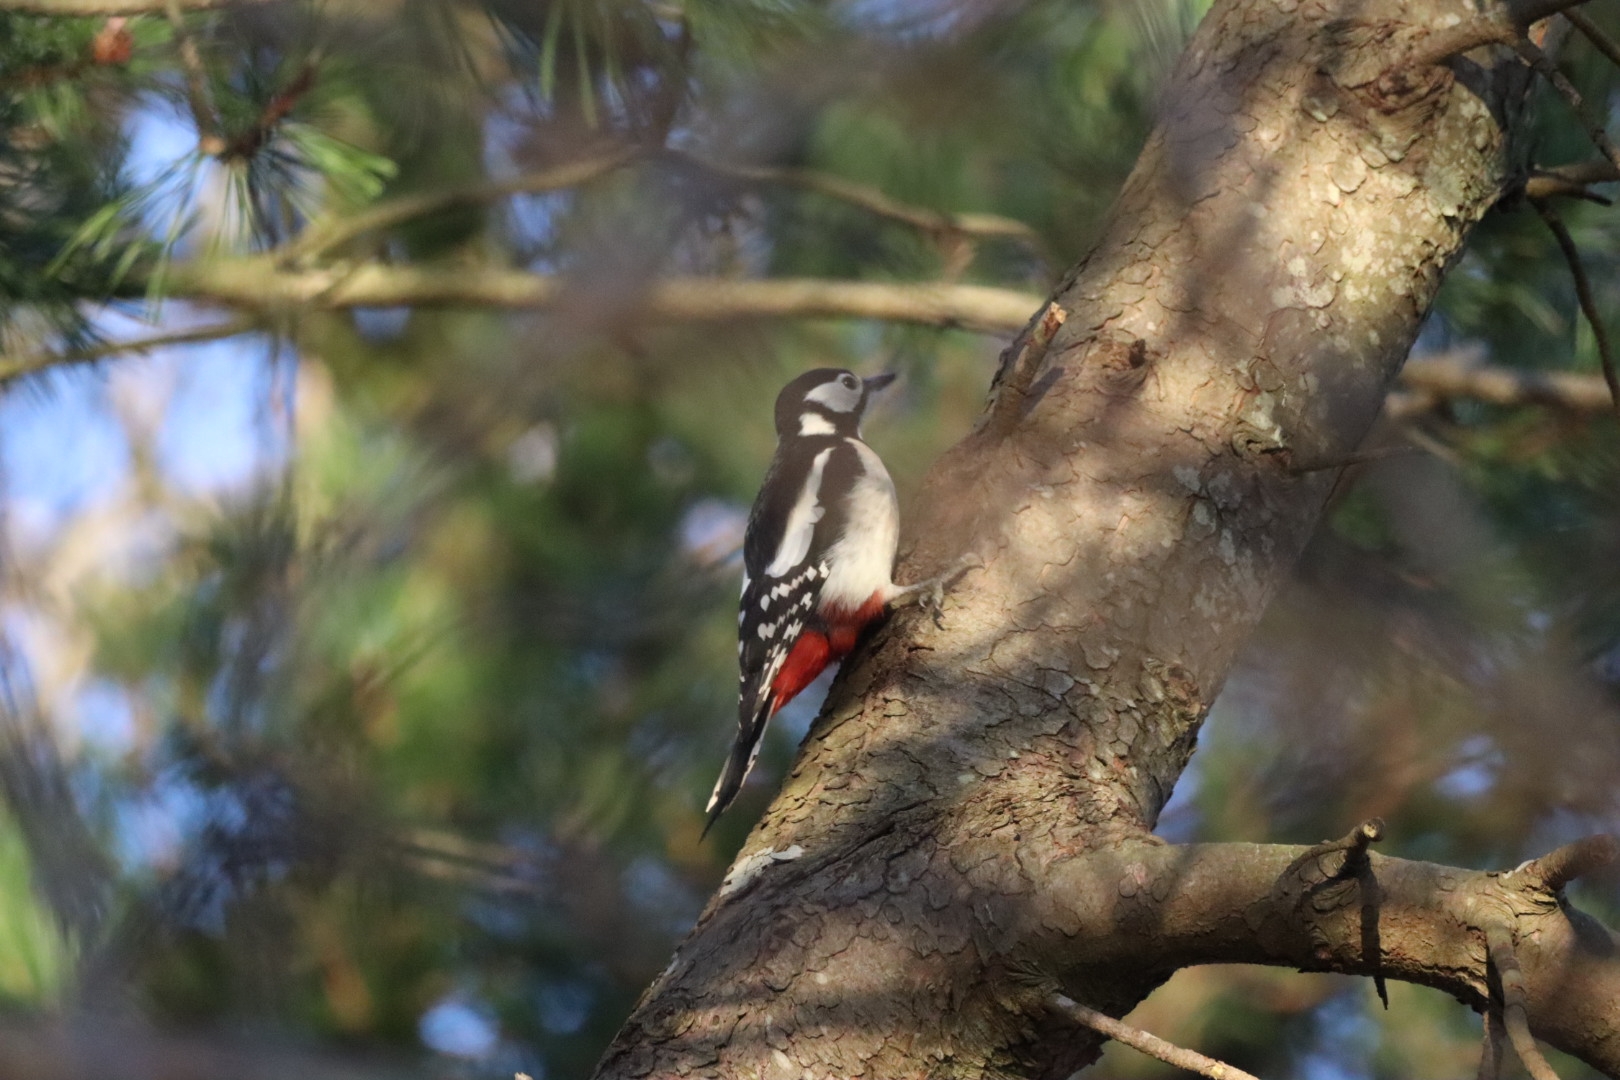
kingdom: Animalia
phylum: Chordata
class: Aves
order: Piciformes
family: Picidae
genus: Dendrocopos
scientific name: Dendrocopos major
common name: Stor flagspætte
